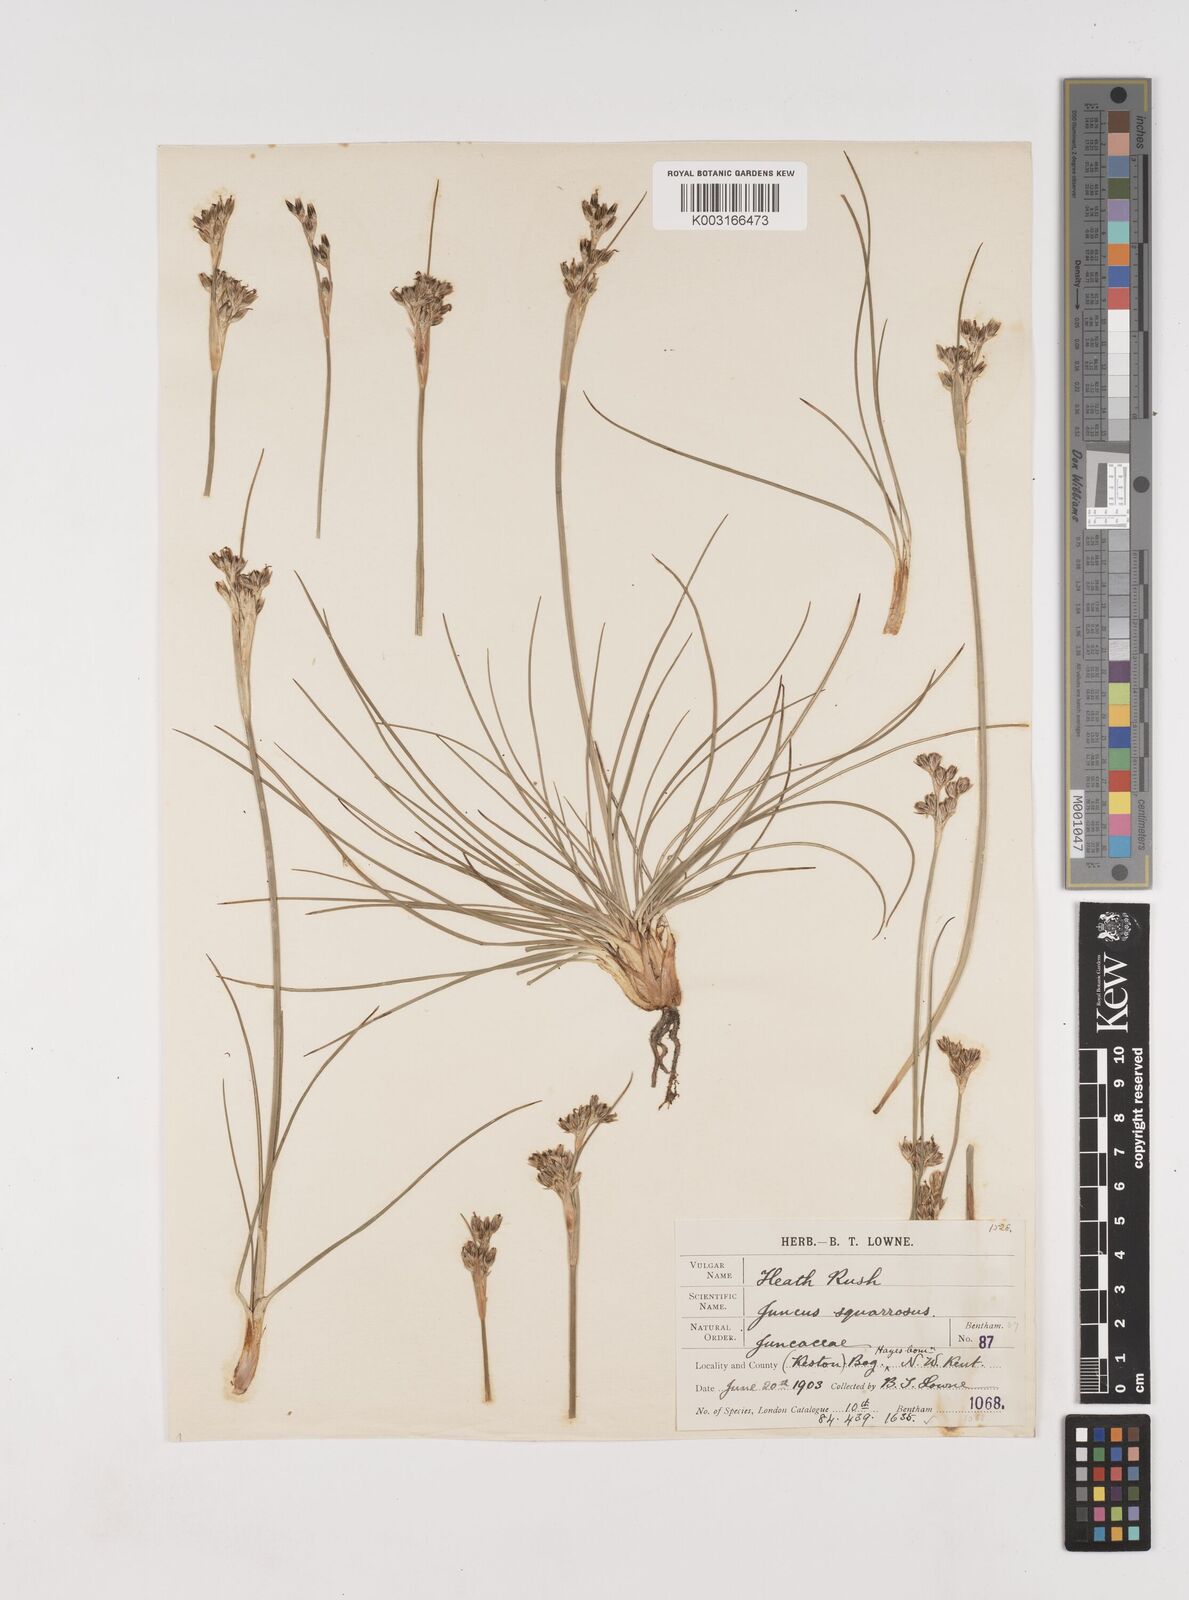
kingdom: Plantae
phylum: Tracheophyta
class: Liliopsida
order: Poales
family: Juncaceae
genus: Juncus
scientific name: Juncus squarrosus
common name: Heath rush
